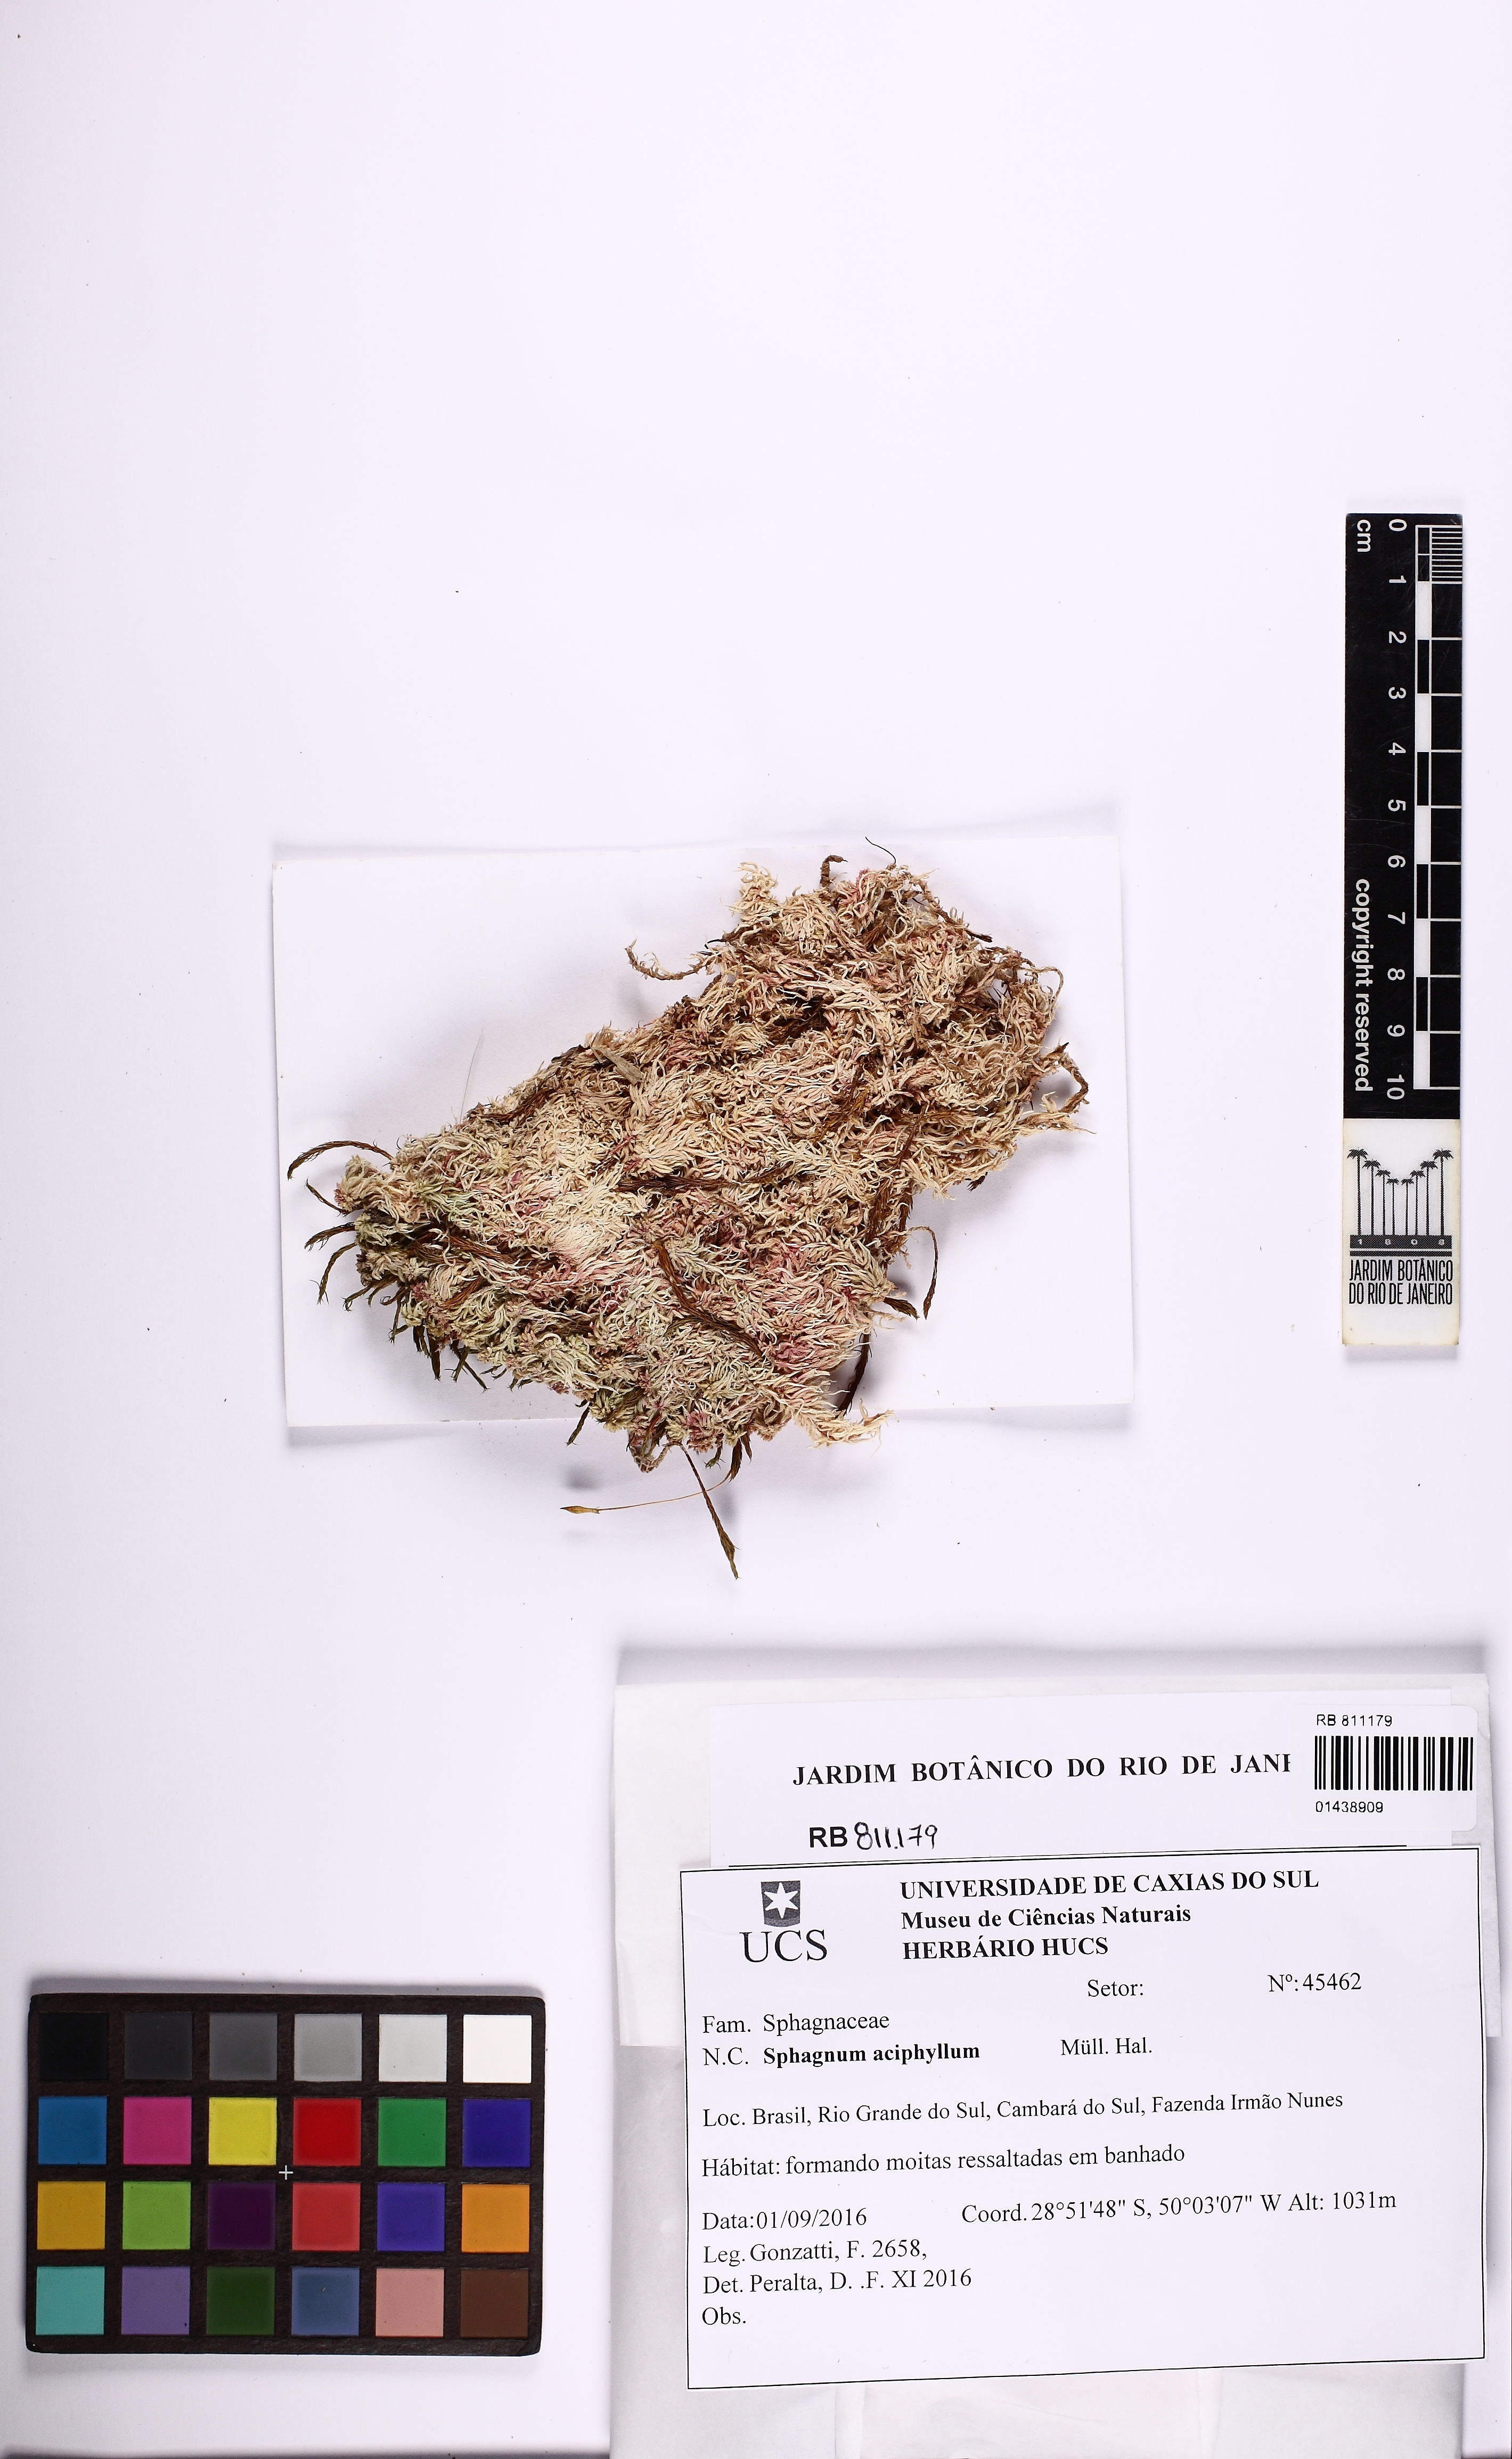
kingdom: Plantae
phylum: Bryophyta
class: Sphagnopsida
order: Sphagnales
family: Sphagnaceae
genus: Sphagnum
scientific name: Sphagnum aciphyllum
